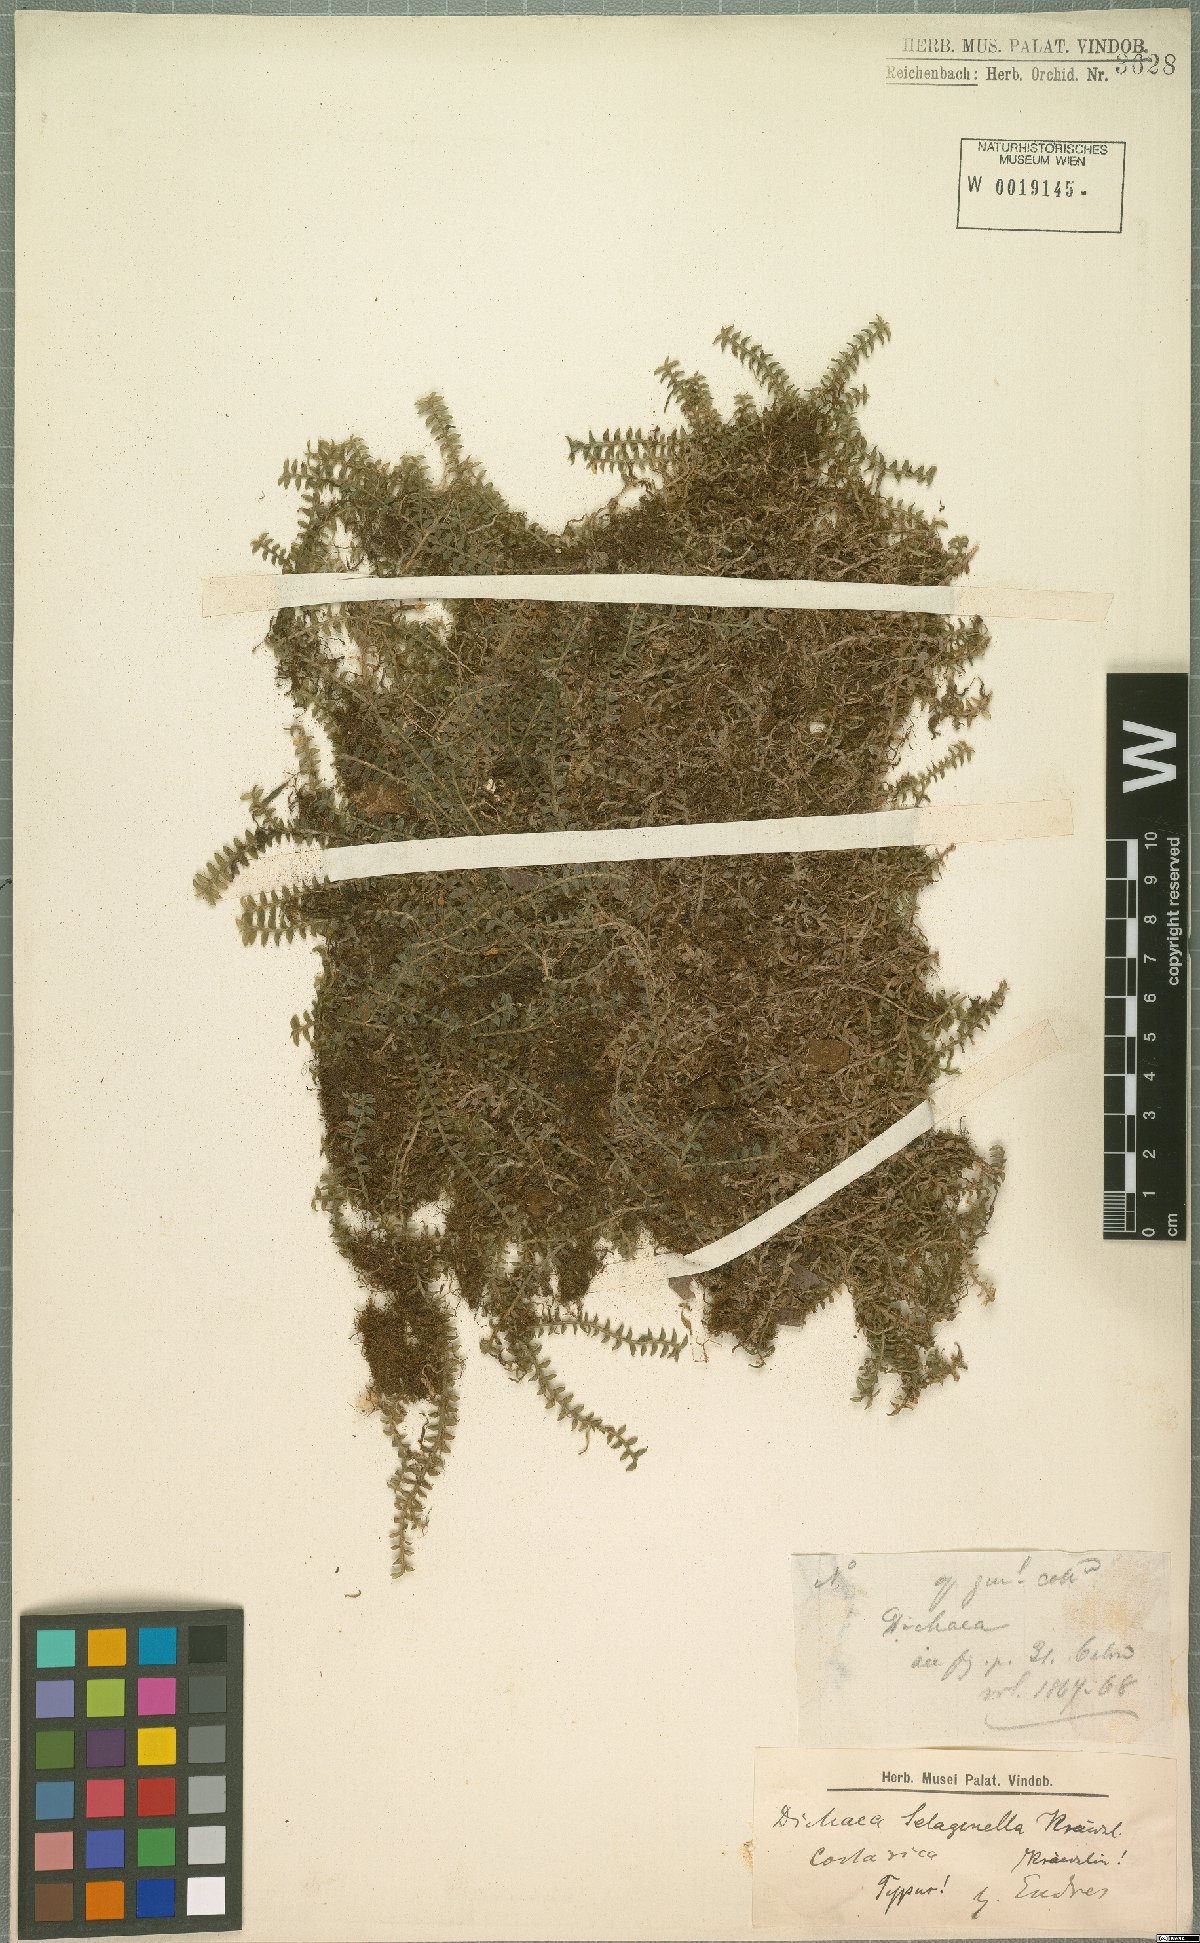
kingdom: Plantae
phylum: Tracheophyta
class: Liliopsida
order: Asparagales
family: Orchidaceae
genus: Dichaea
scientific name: Dichaea selaginella
